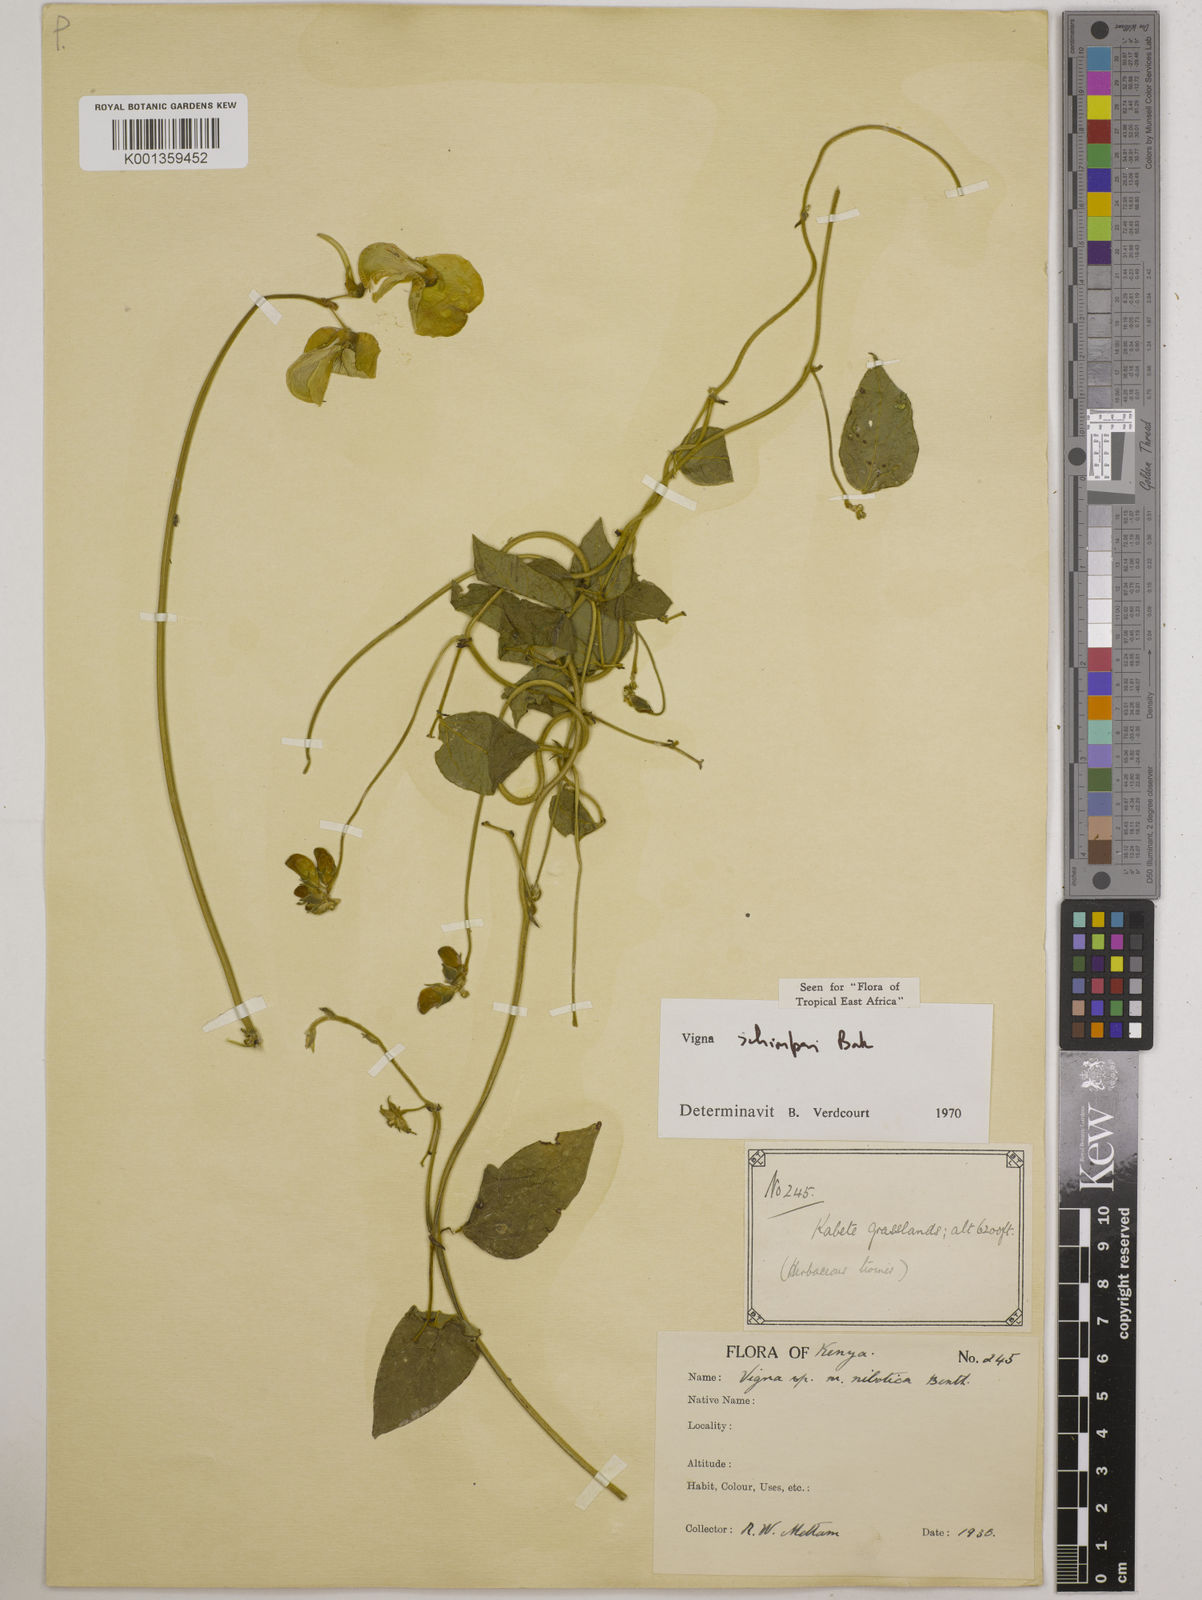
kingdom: Plantae
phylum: Tracheophyta
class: Magnoliopsida
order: Fabales
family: Fabaceae
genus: Vigna
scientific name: Vigna schimperi
